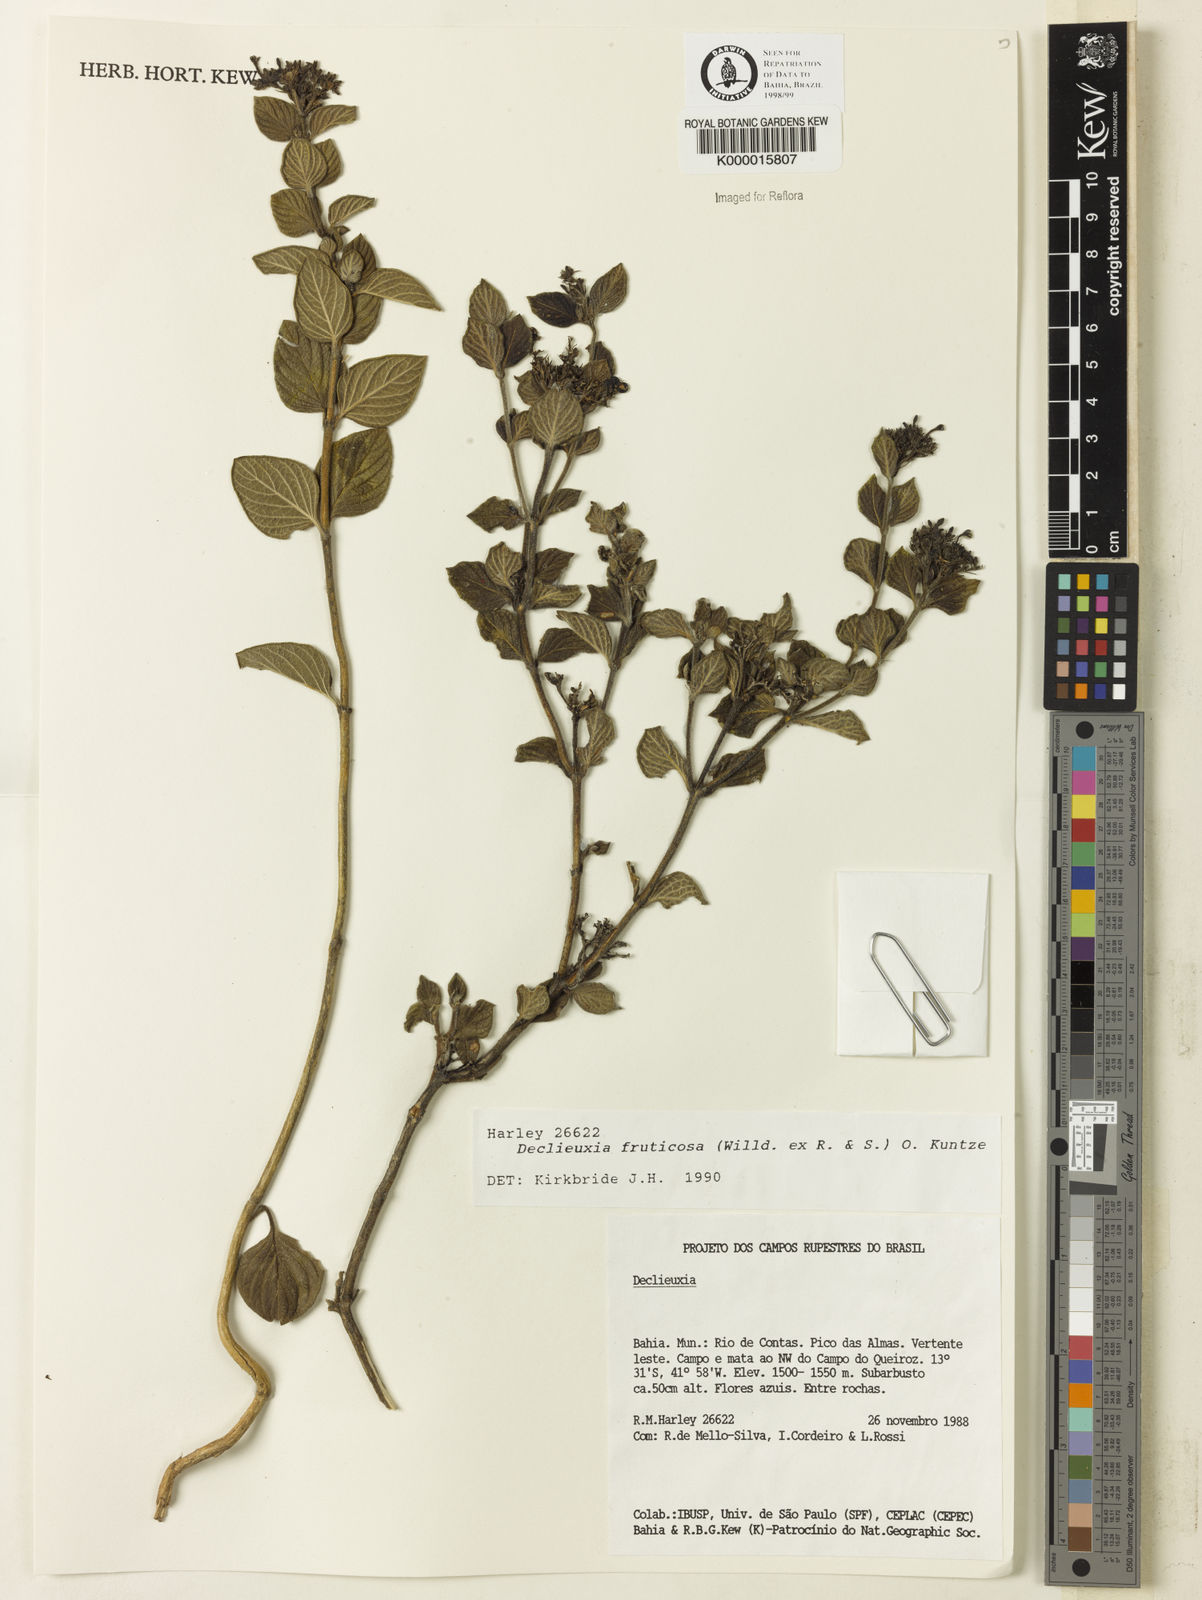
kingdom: Plantae
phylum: Tracheophyta
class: Magnoliopsida
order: Gentianales
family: Rubiaceae
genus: Declieuxia
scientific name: Declieuxia fruticosa
